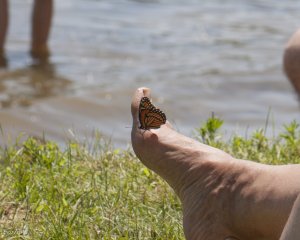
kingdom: Animalia
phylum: Arthropoda
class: Insecta
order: Lepidoptera
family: Nymphalidae
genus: Limenitis
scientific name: Limenitis archippus
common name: Viceroy
